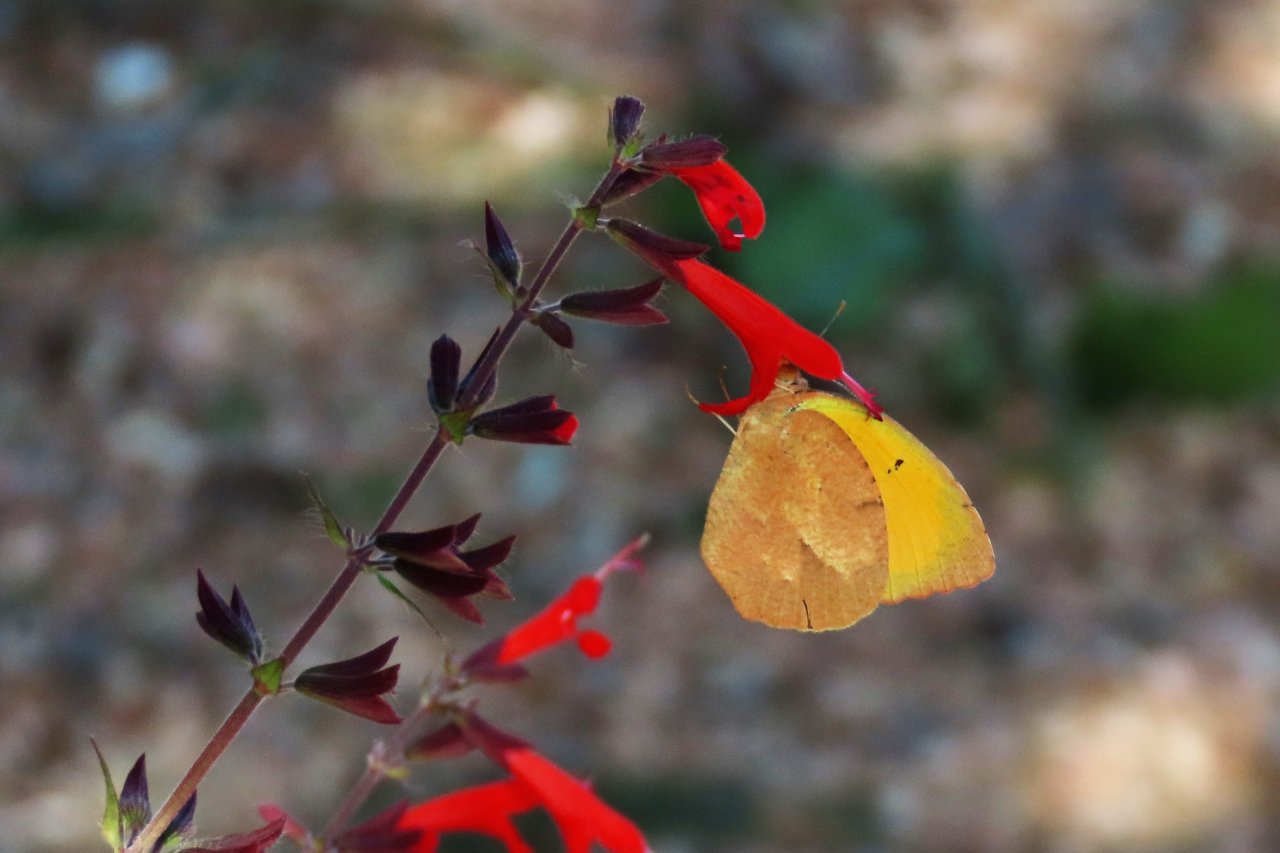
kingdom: Animalia
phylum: Arthropoda
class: Insecta
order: Lepidoptera
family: Pieridae
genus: Abaeis
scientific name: Abaeis nicippe
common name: Sleepy Orange
